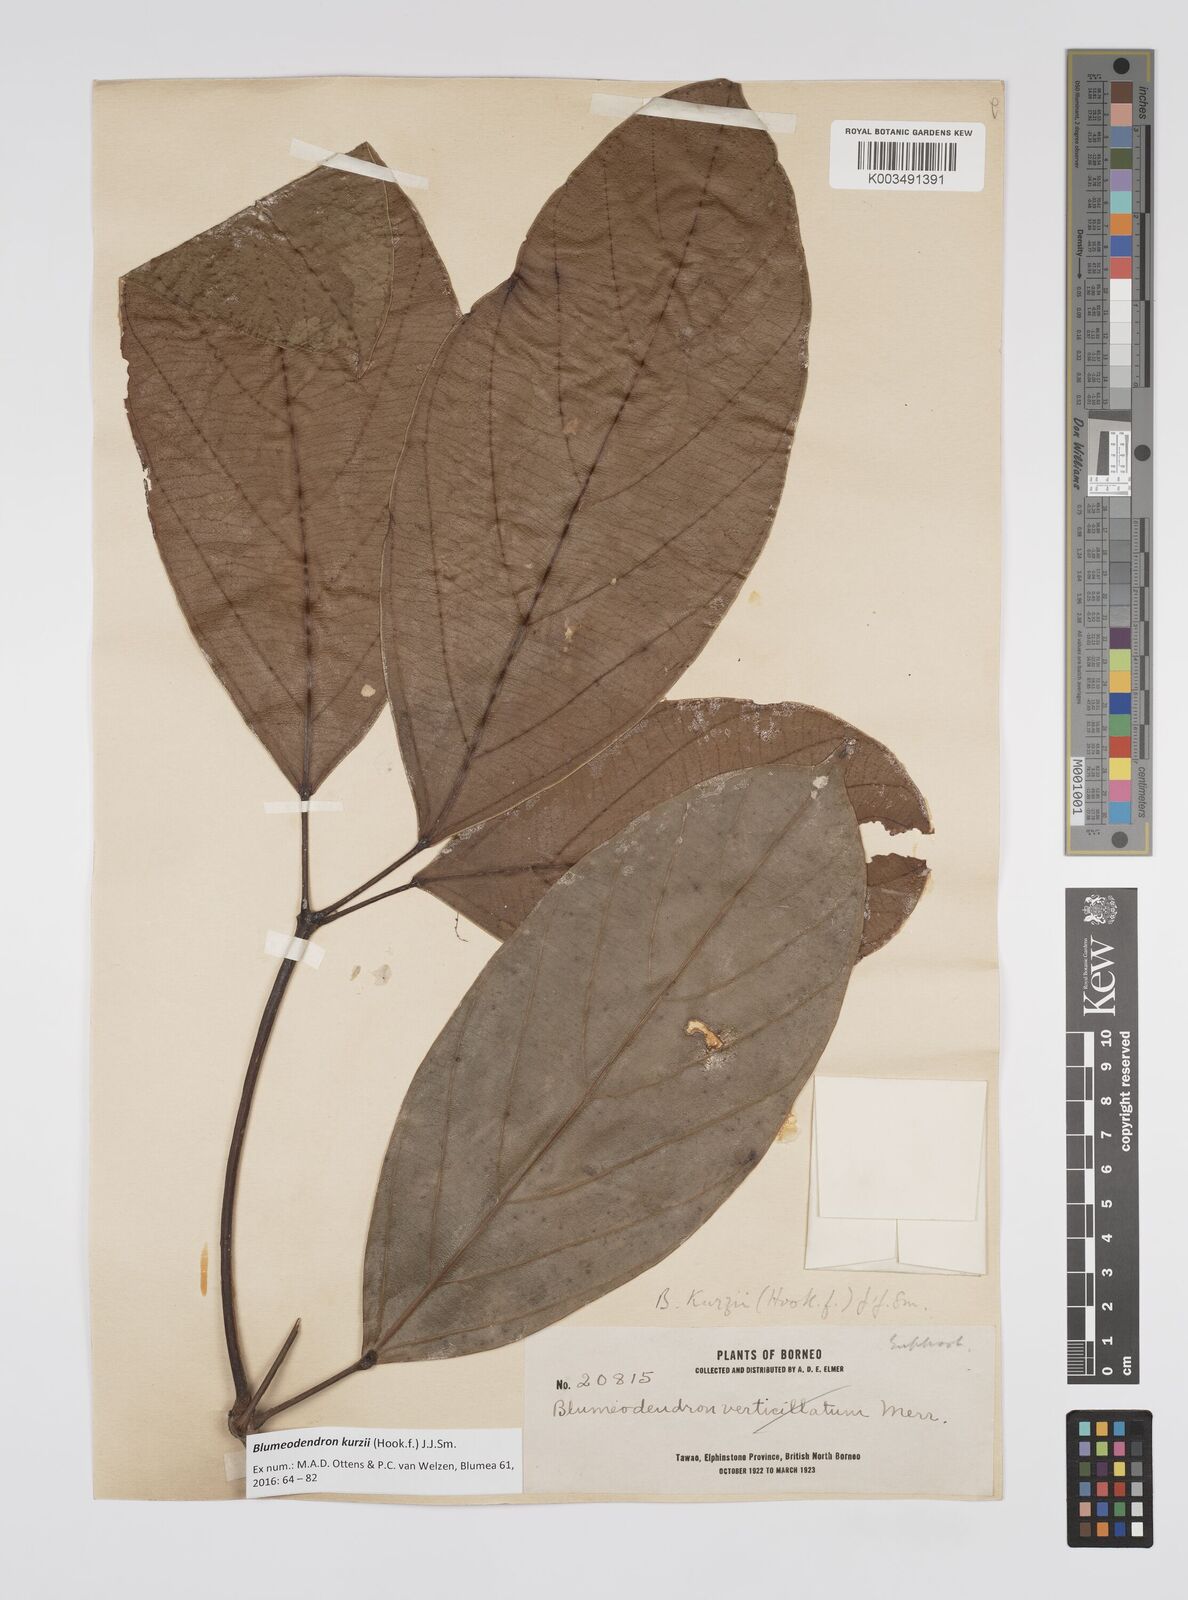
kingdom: Plantae
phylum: Tracheophyta
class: Magnoliopsida
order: Malpighiales
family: Euphorbiaceae
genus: Blumeodendron
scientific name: Blumeodendron kurzii
